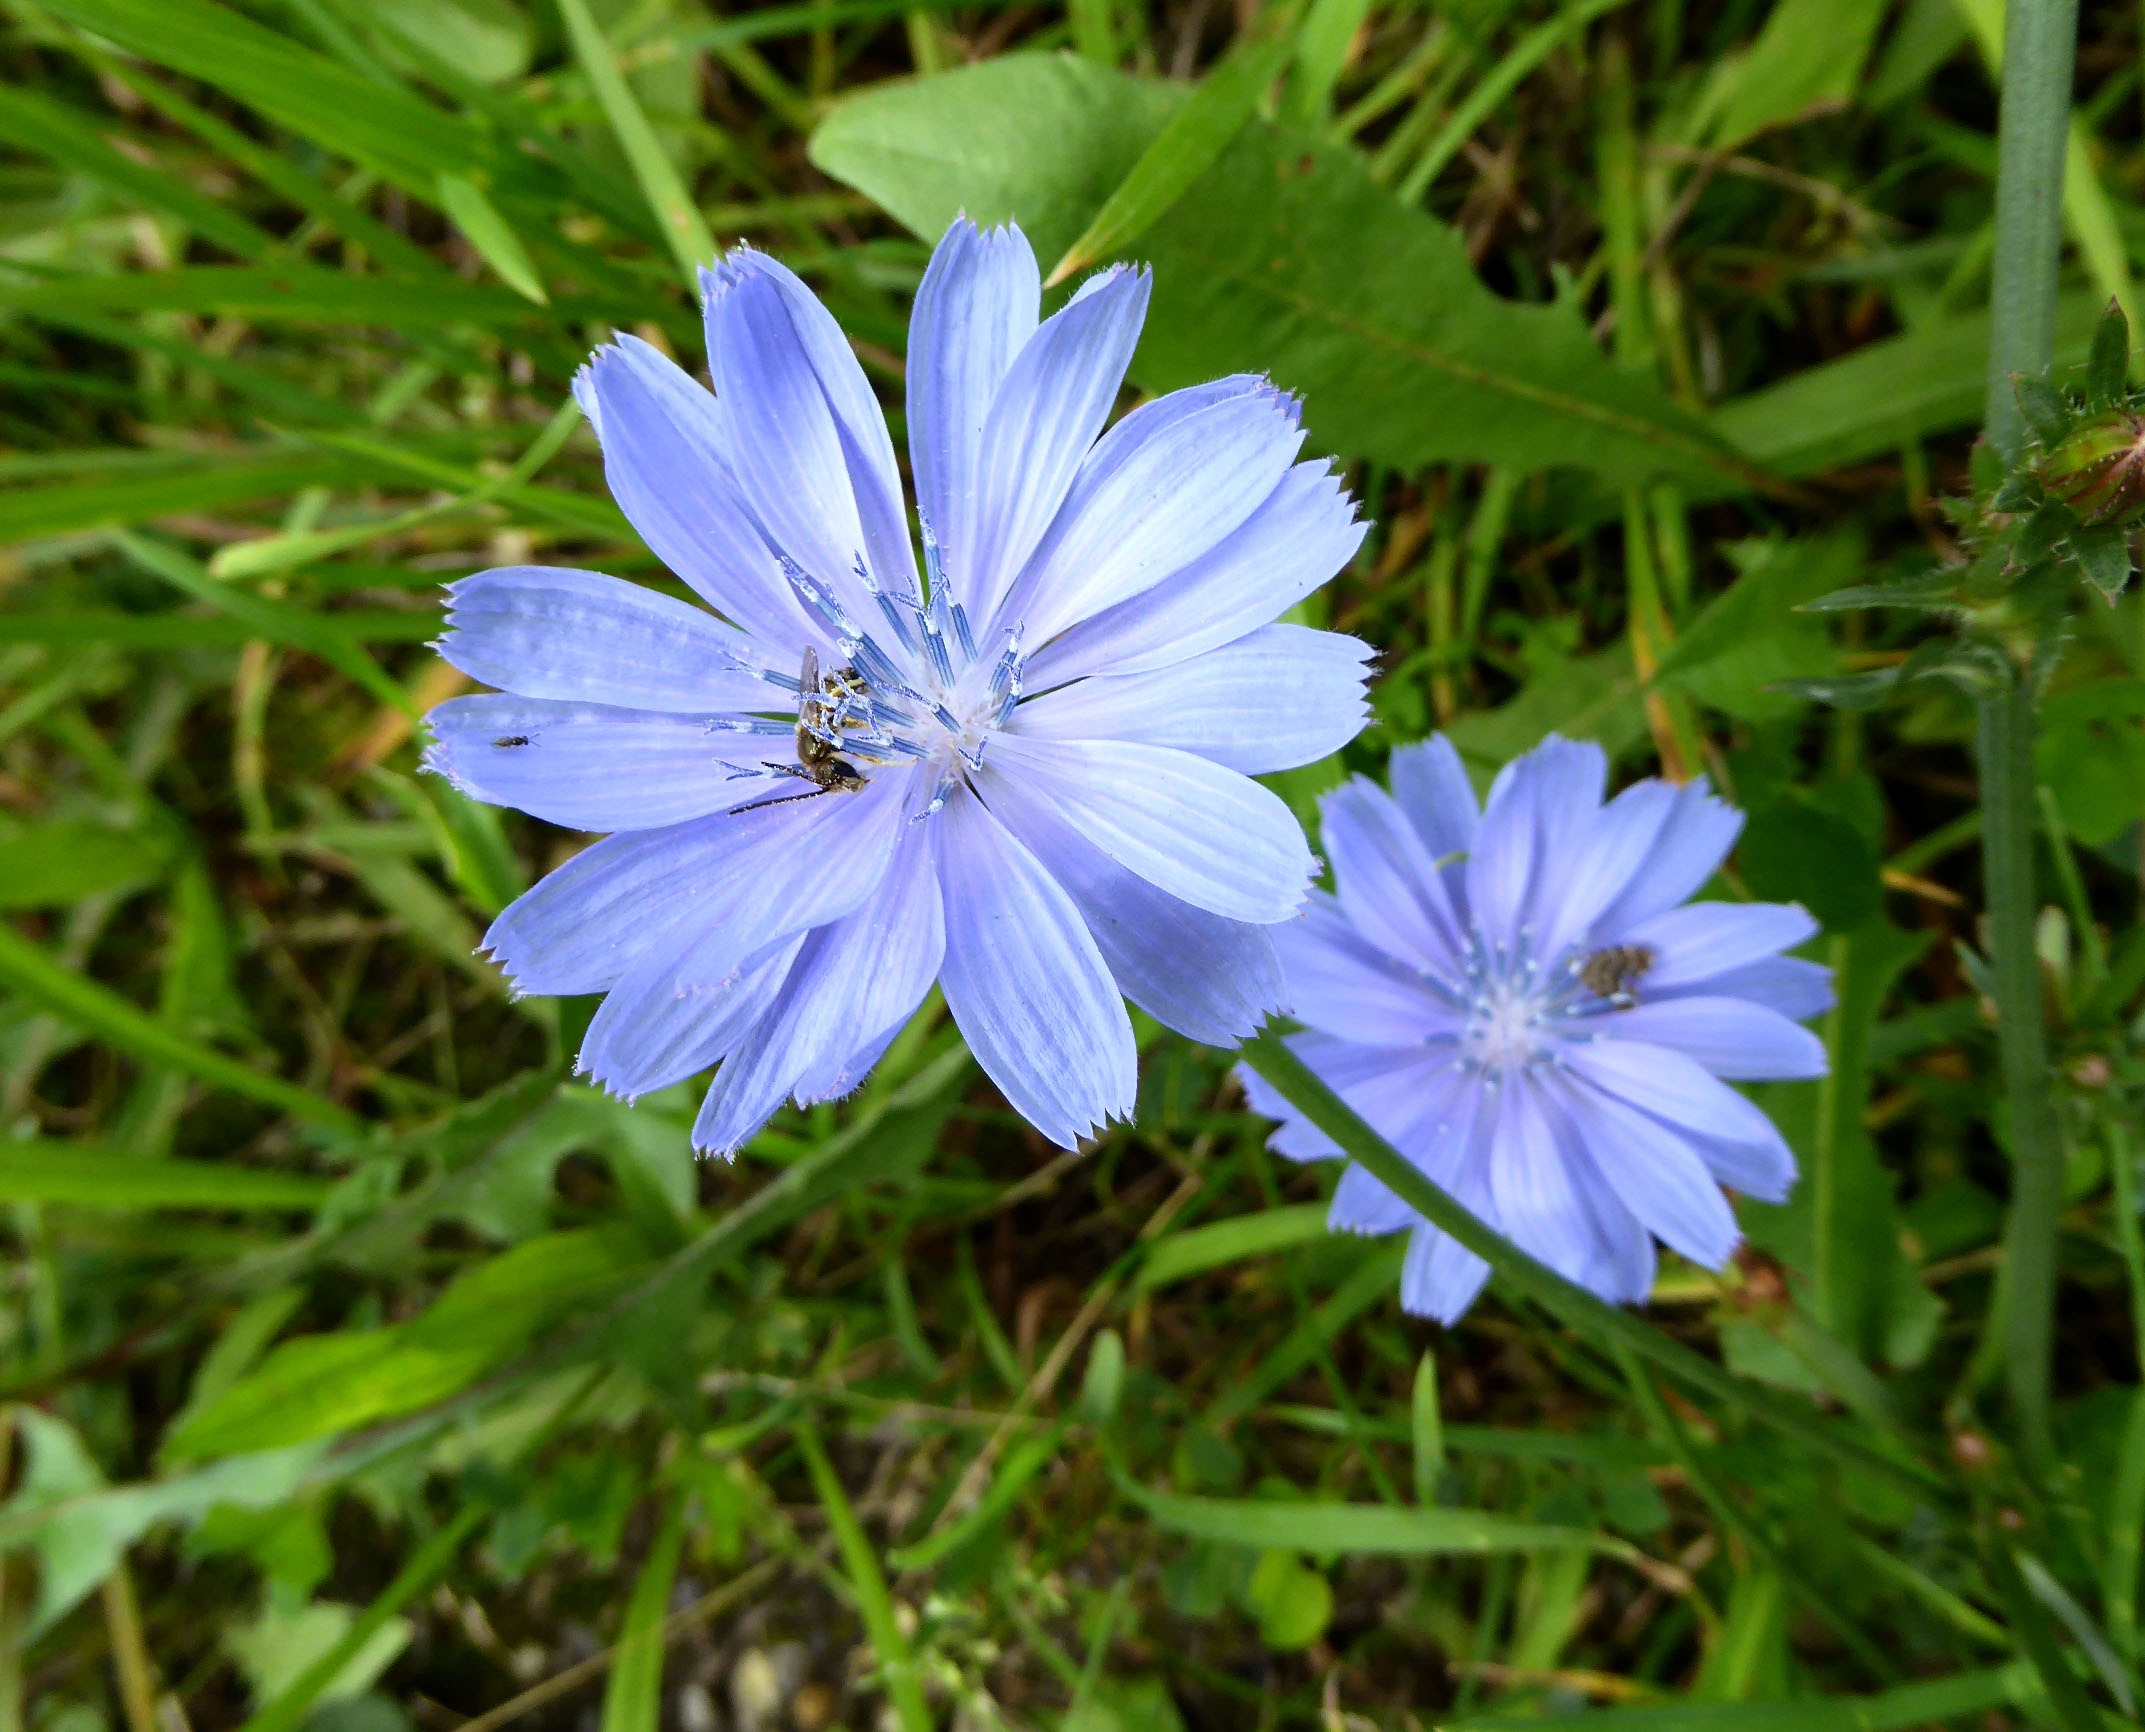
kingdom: Plantae
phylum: Tracheophyta
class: Magnoliopsida
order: Asterales
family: Asteraceae
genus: Cichorium
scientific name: Cichorium intybus
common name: Cikorie
